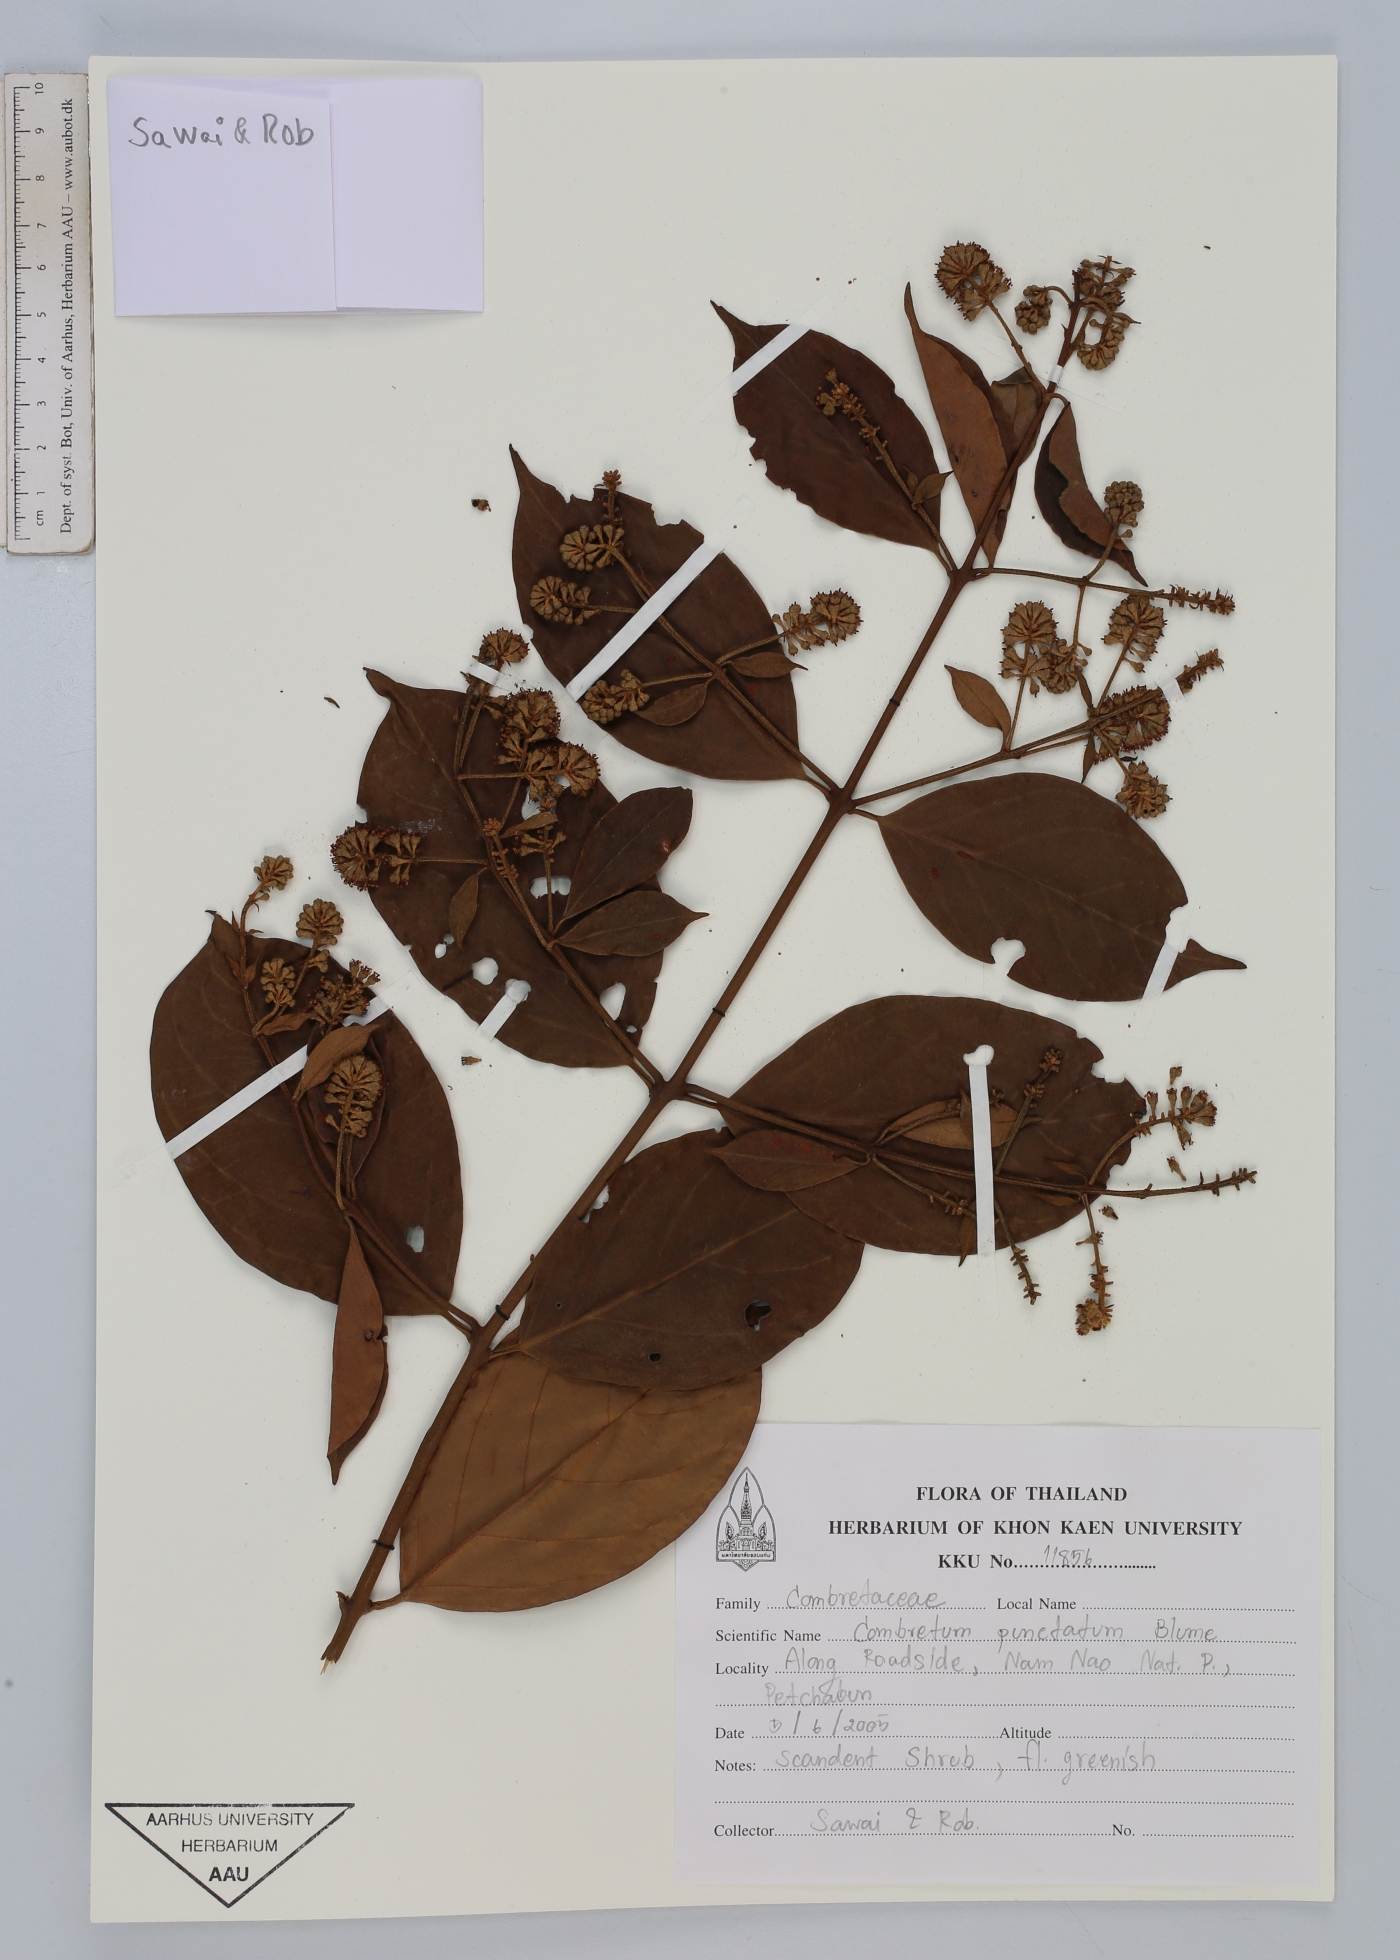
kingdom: Plantae
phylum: Tracheophyta
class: Magnoliopsida
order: Myrtales
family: Combretaceae
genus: Combretum
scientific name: Combretum punctatum
